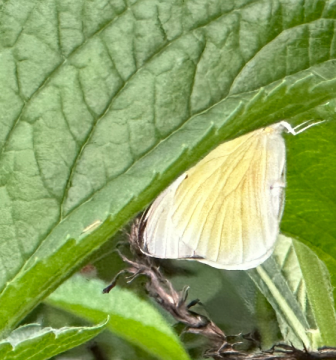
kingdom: Animalia
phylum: Arthropoda
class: Insecta
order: Lepidoptera
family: Hesperiidae
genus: Nastra
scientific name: Nastra julia
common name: Julia's Skipper
